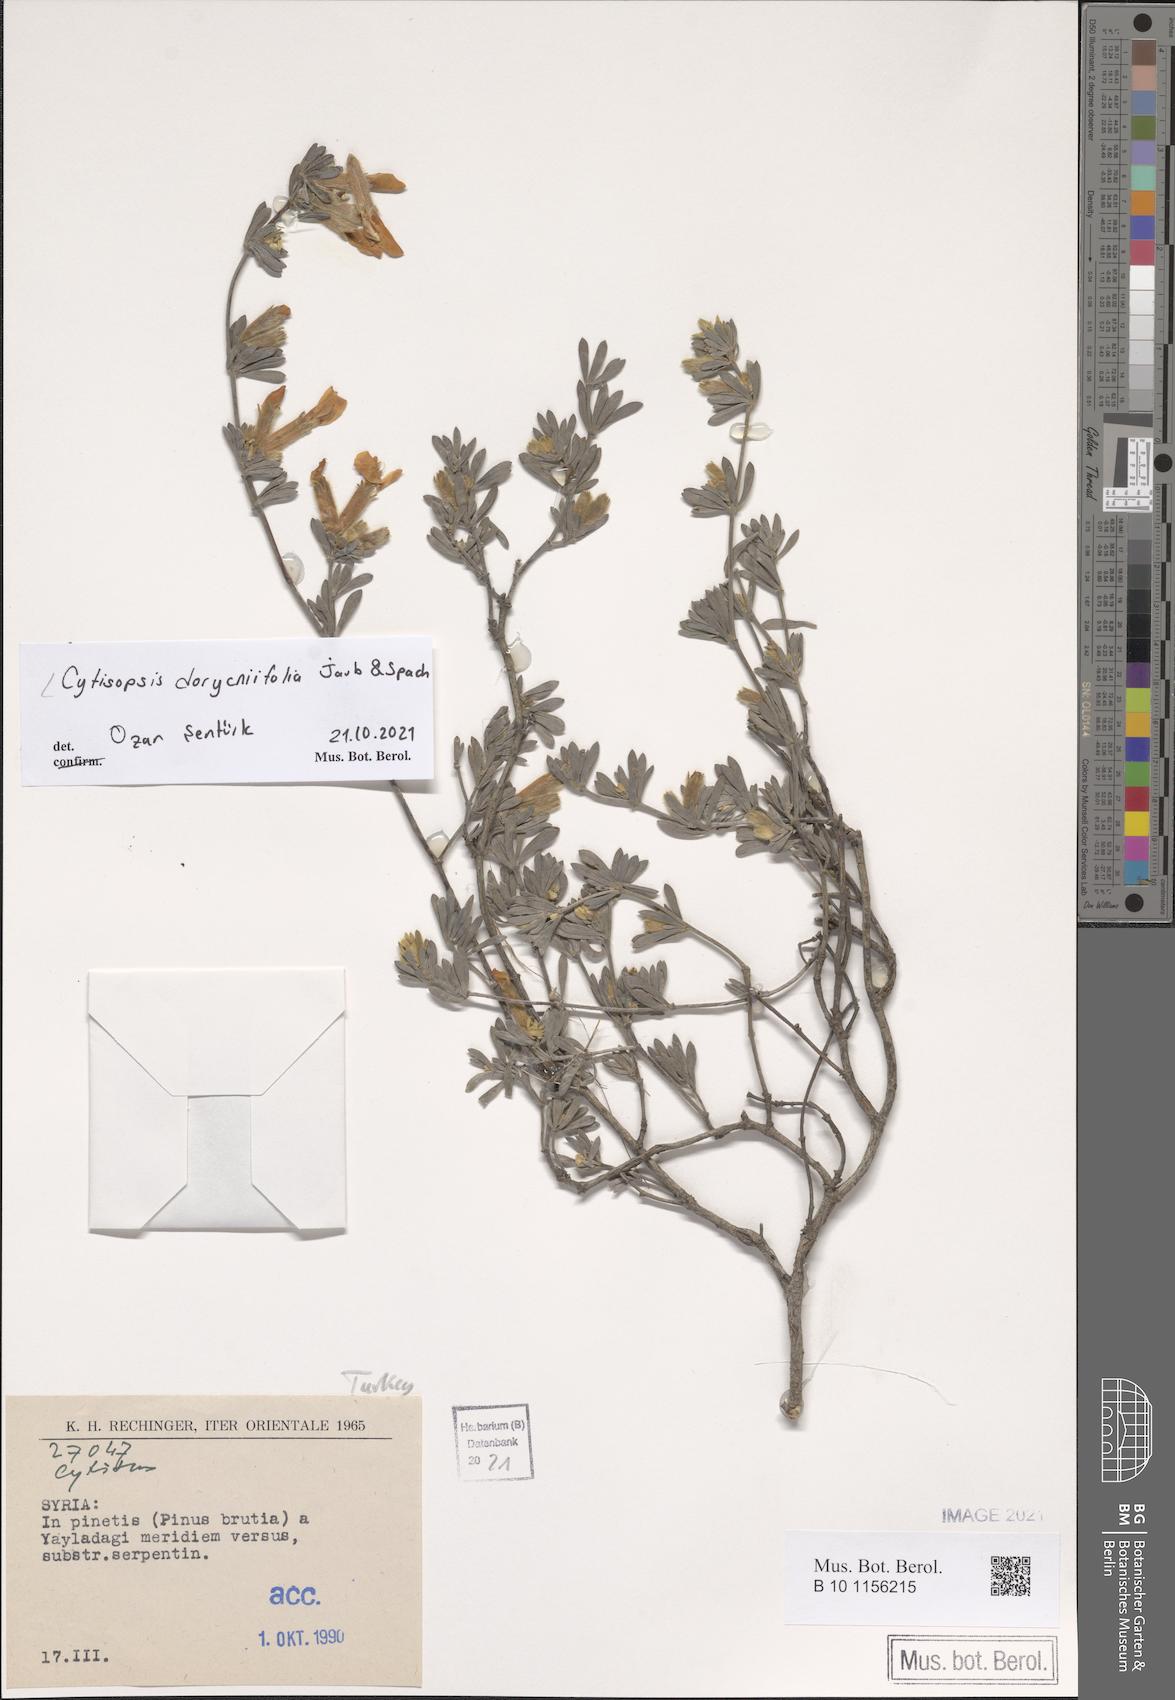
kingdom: Plantae
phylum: Tracheophyta
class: Magnoliopsida
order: Fabales
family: Fabaceae
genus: Cytisopsis
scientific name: Cytisopsis pseudocytisus
